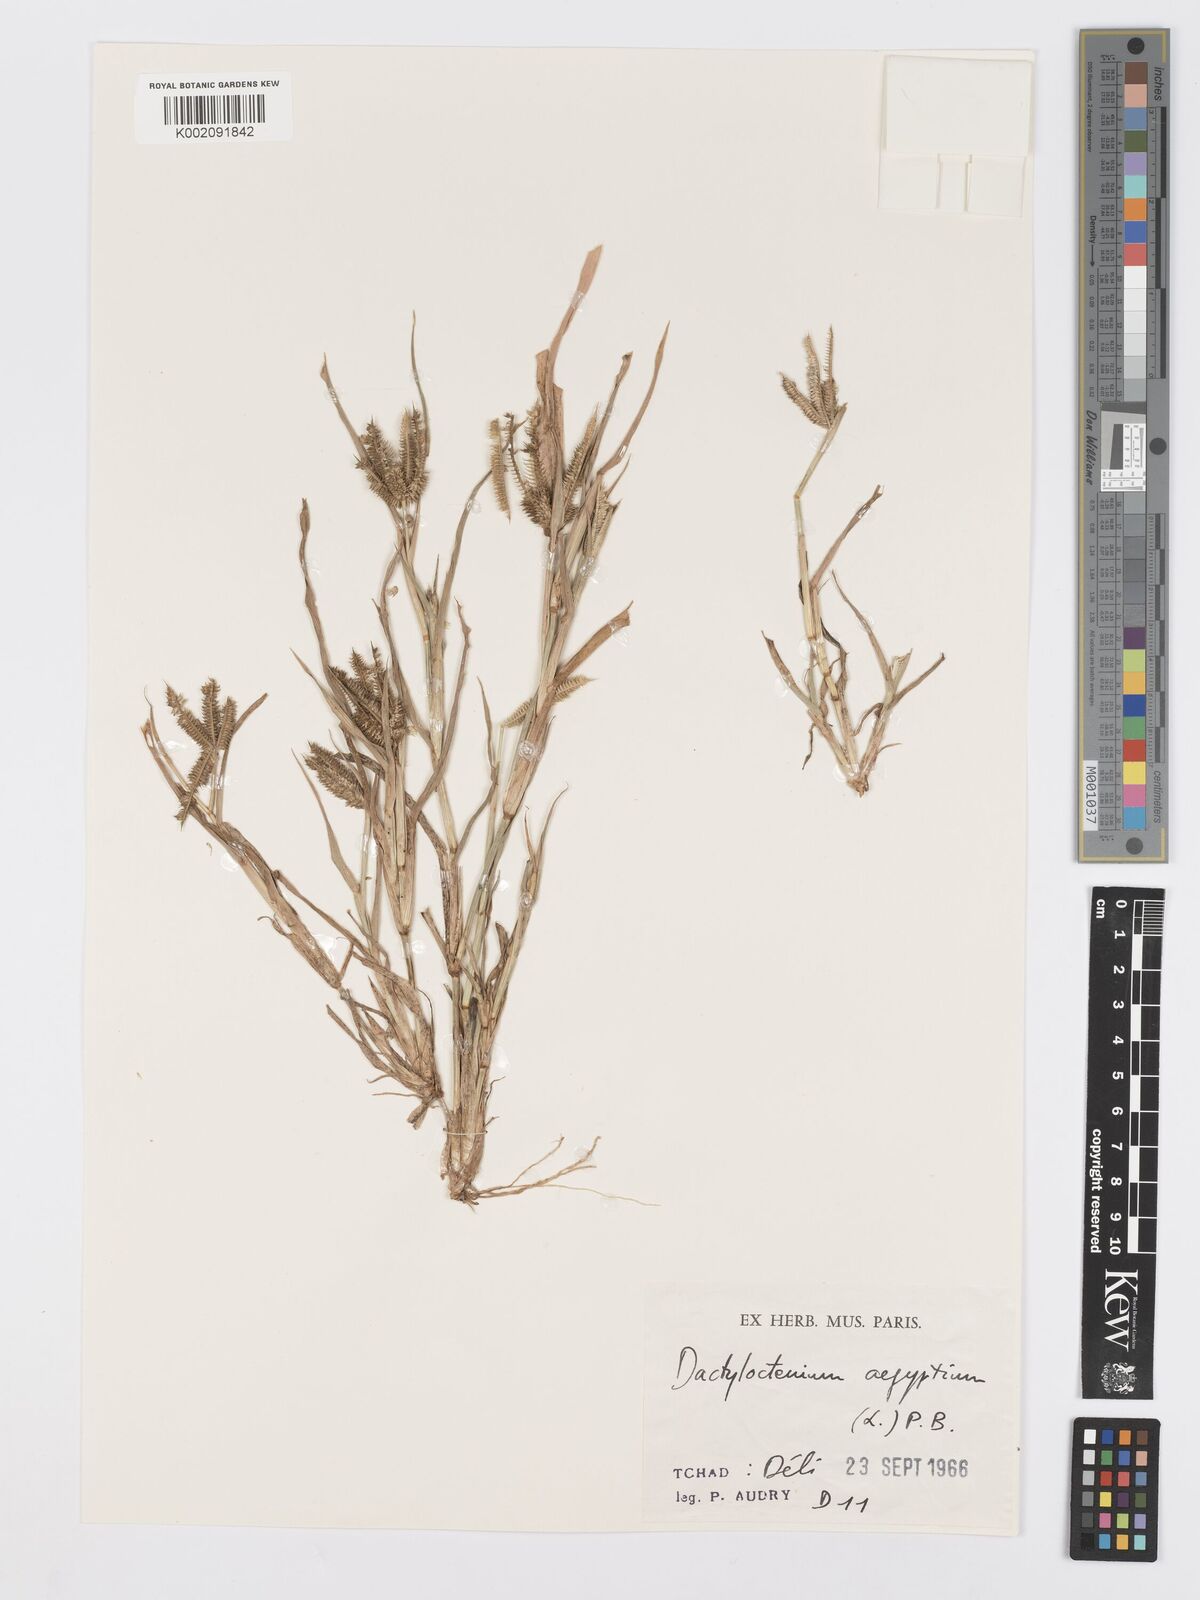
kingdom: Plantae
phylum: Tracheophyta
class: Liliopsida
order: Poales
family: Poaceae
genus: Dactyloctenium
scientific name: Dactyloctenium aegyptium
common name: Egyptian grass
